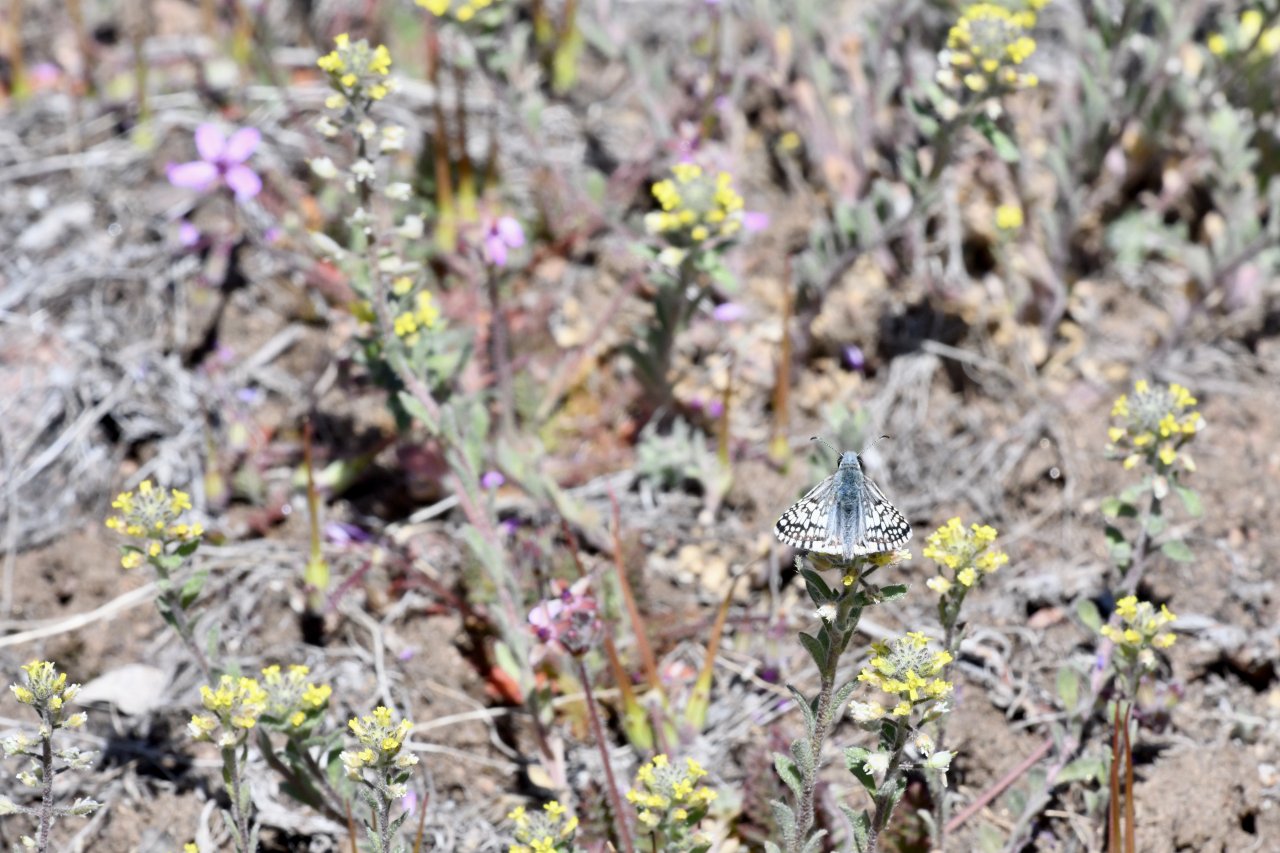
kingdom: Animalia
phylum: Arthropoda
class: Insecta
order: Lepidoptera
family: Hesperiidae
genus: Pyrgus
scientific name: Pyrgus communis
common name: Common Checkered-Skipper
